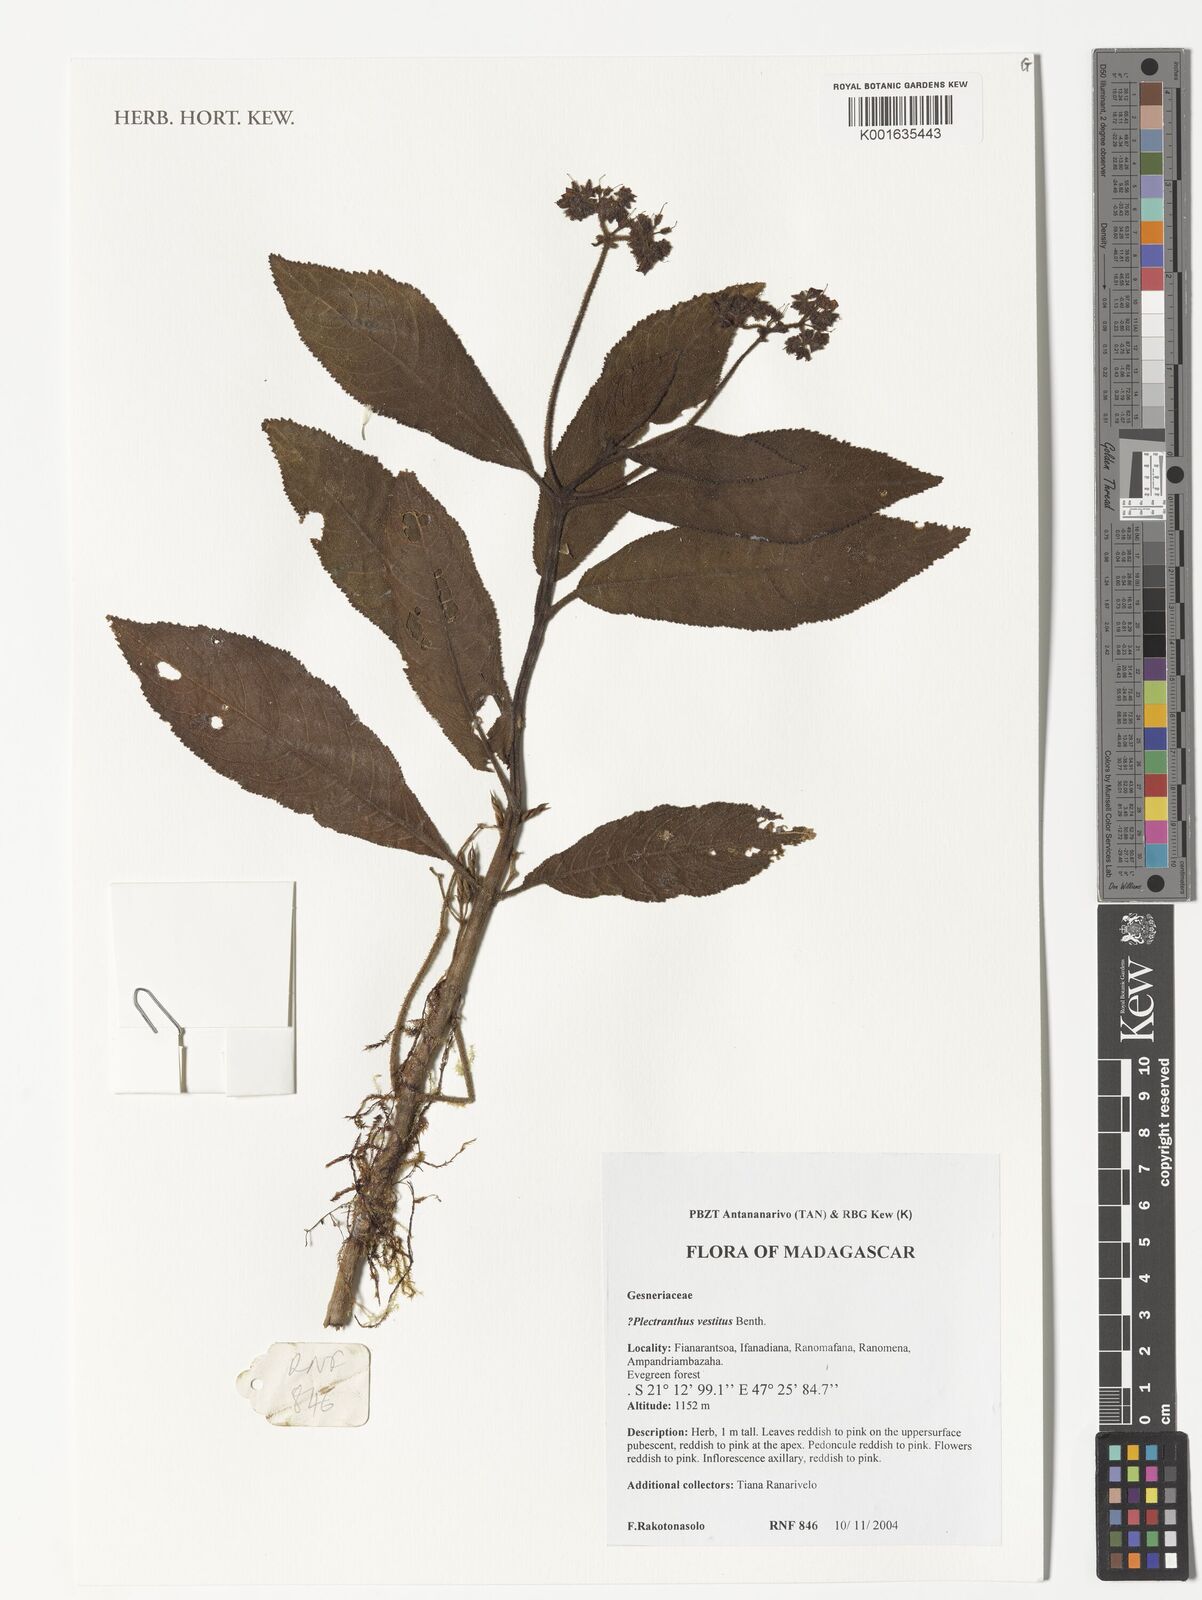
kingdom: Plantae
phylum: Tracheophyta
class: Magnoliopsida
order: Lamiales
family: Lamiaceae
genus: Plectranthus
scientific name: Plectranthus vestitus
